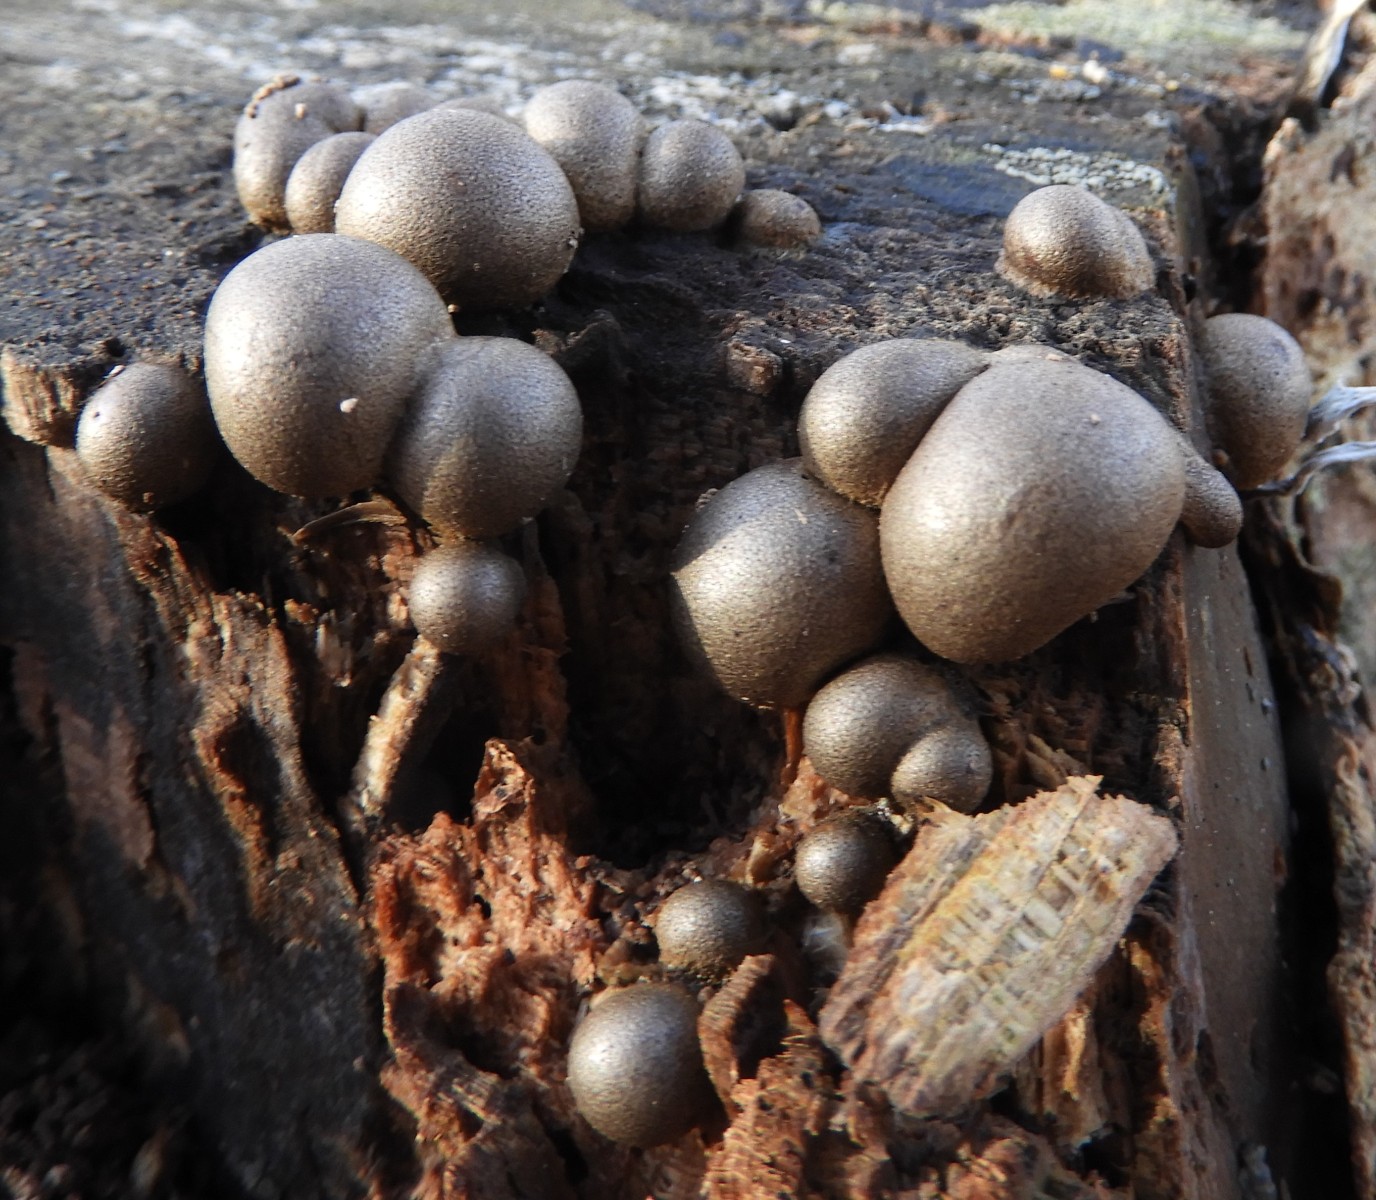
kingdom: Protozoa
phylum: Mycetozoa
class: Myxomycetes
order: Cribrariales
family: Tubiferaceae
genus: Lycogala
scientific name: Lycogala epidendrum
